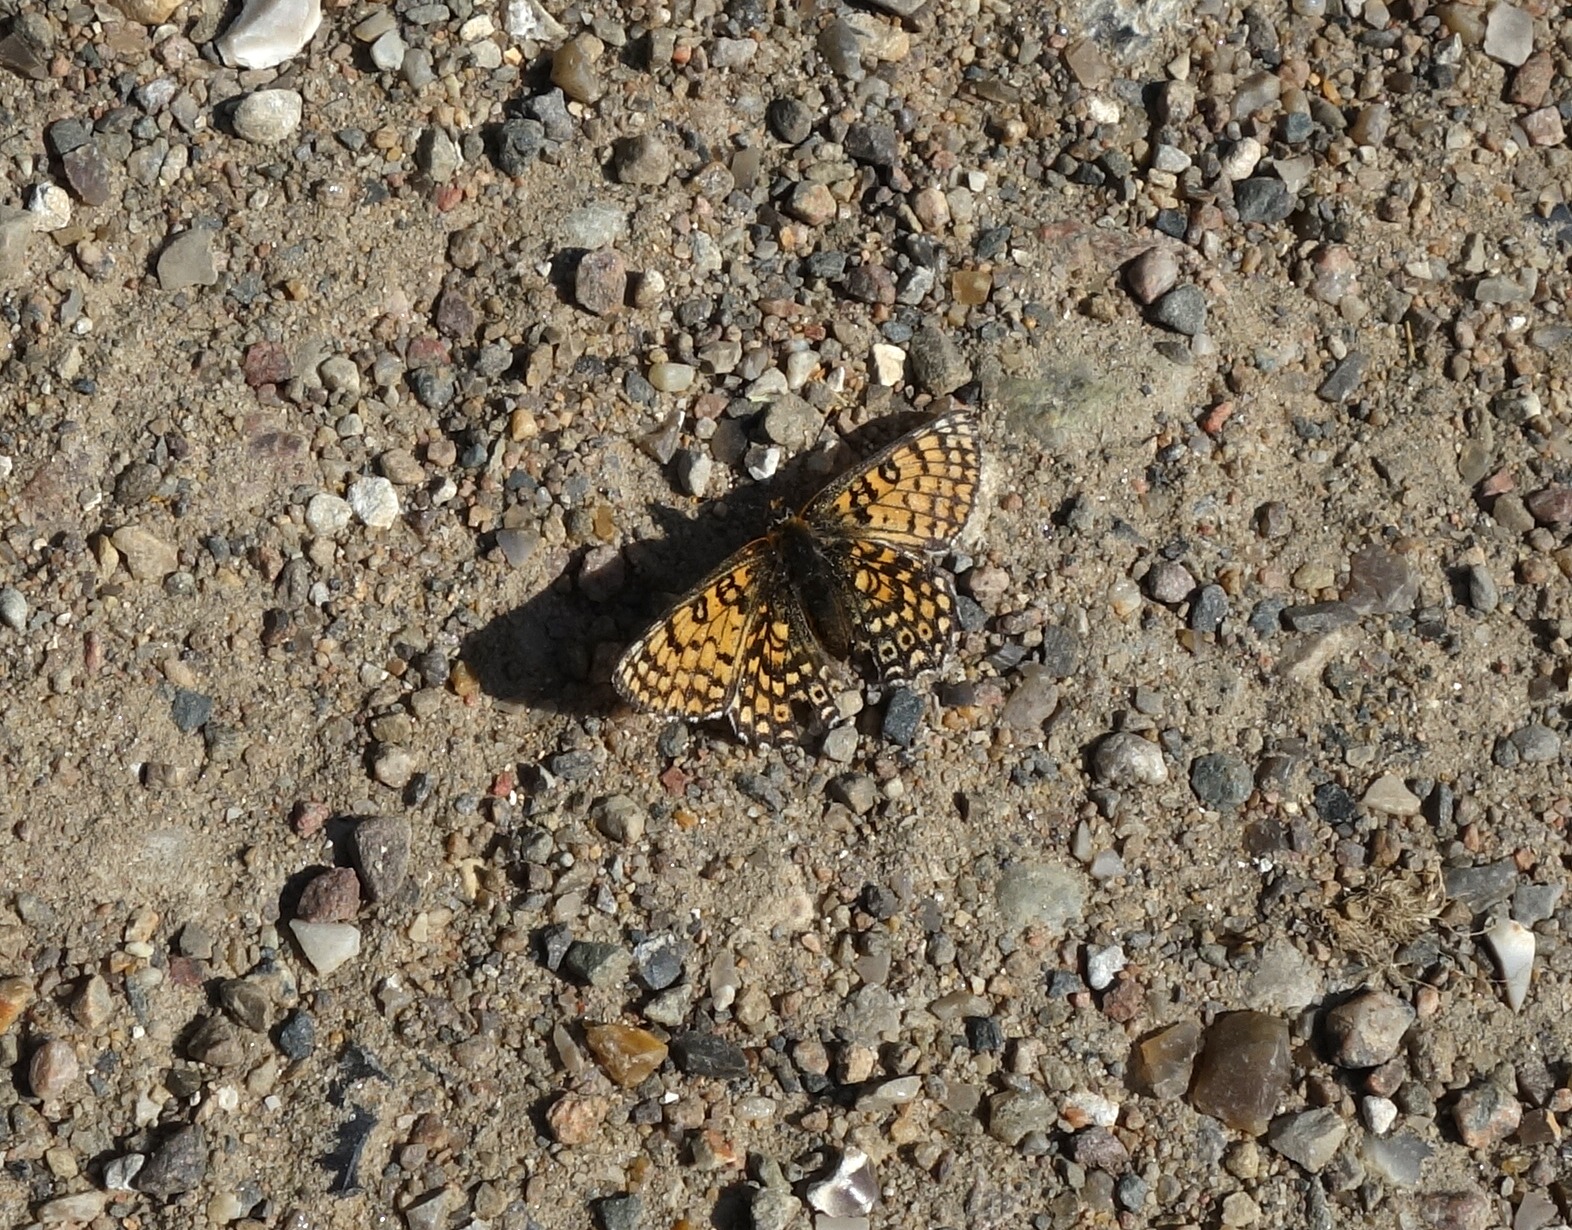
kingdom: Animalia
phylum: Arthropoda
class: Insecta
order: Lepidoptera
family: Nymphalidae
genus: Melitaea
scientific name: Melitaea cinxia
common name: Okkergul pletvinge
